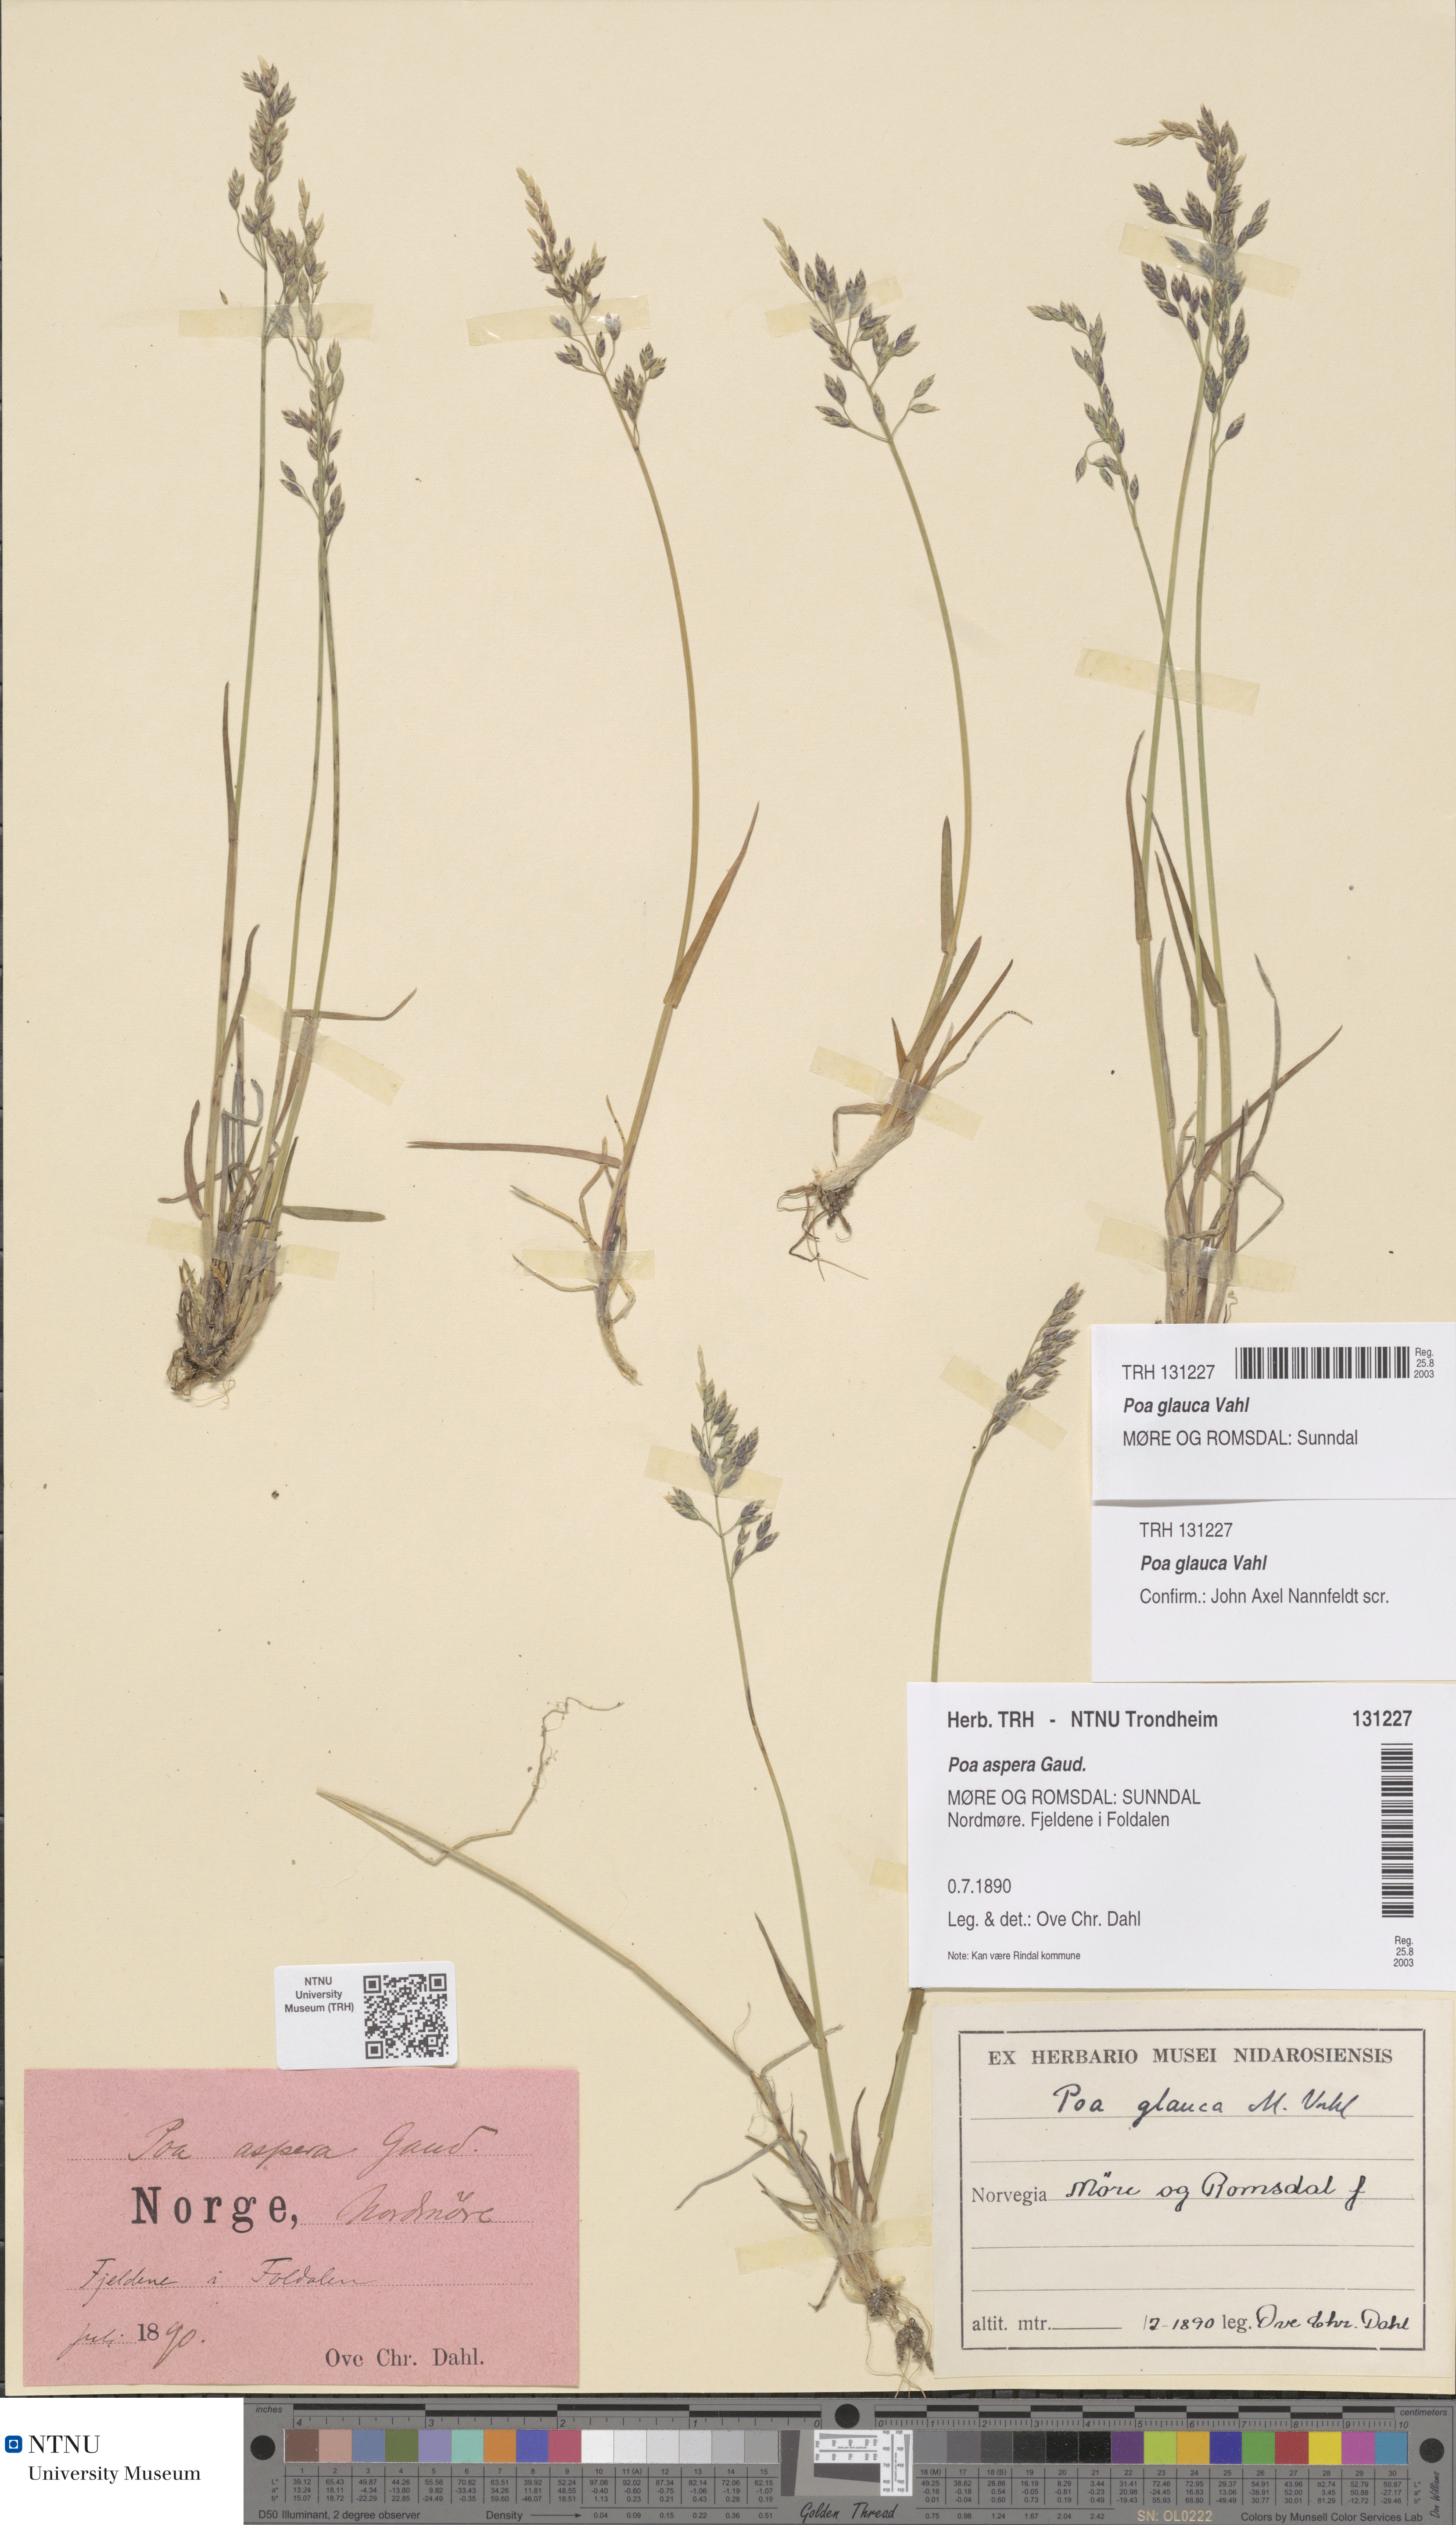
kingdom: Plantae
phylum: Tracheophyta
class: Liliopsida
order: Poales
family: Poaceae
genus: Poa
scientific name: Poa glauca
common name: Glaucous bluegrass
